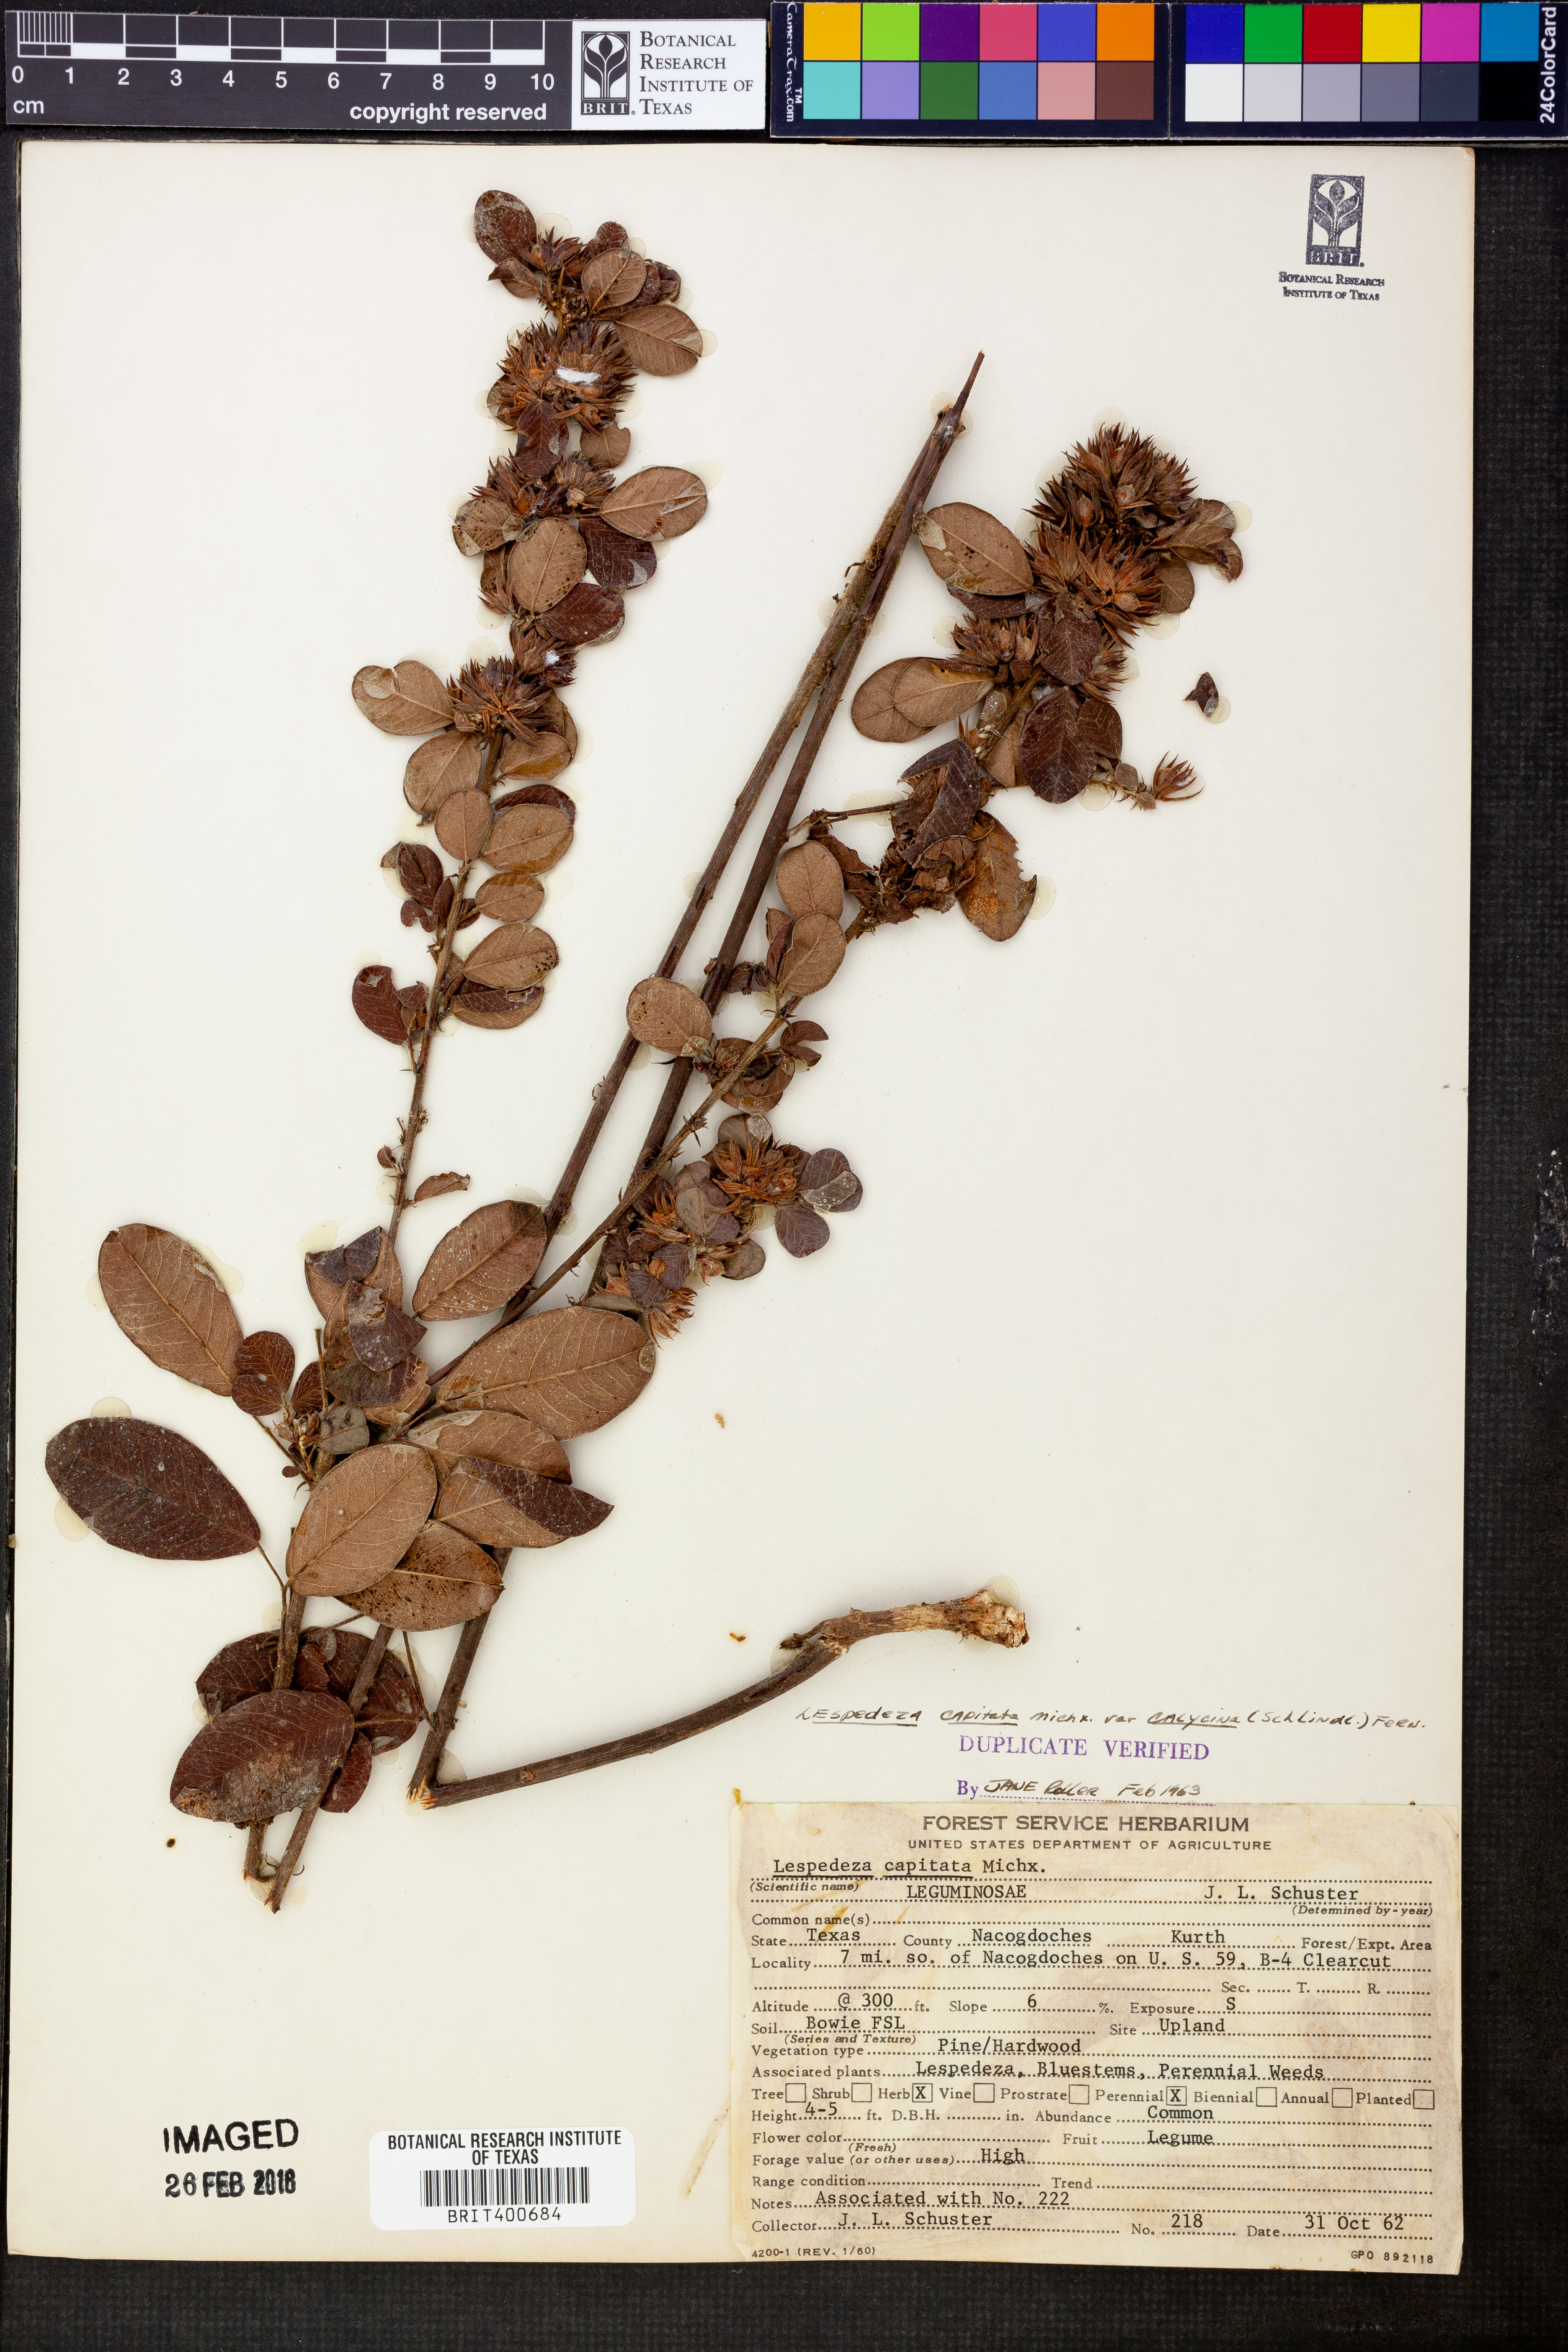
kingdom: Plantae
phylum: Tracheophyta
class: Magnoliopsida
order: Fabales
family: Fabaceae
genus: Lespedeza
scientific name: Lespedeza hirta
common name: Hairy lespedeza
